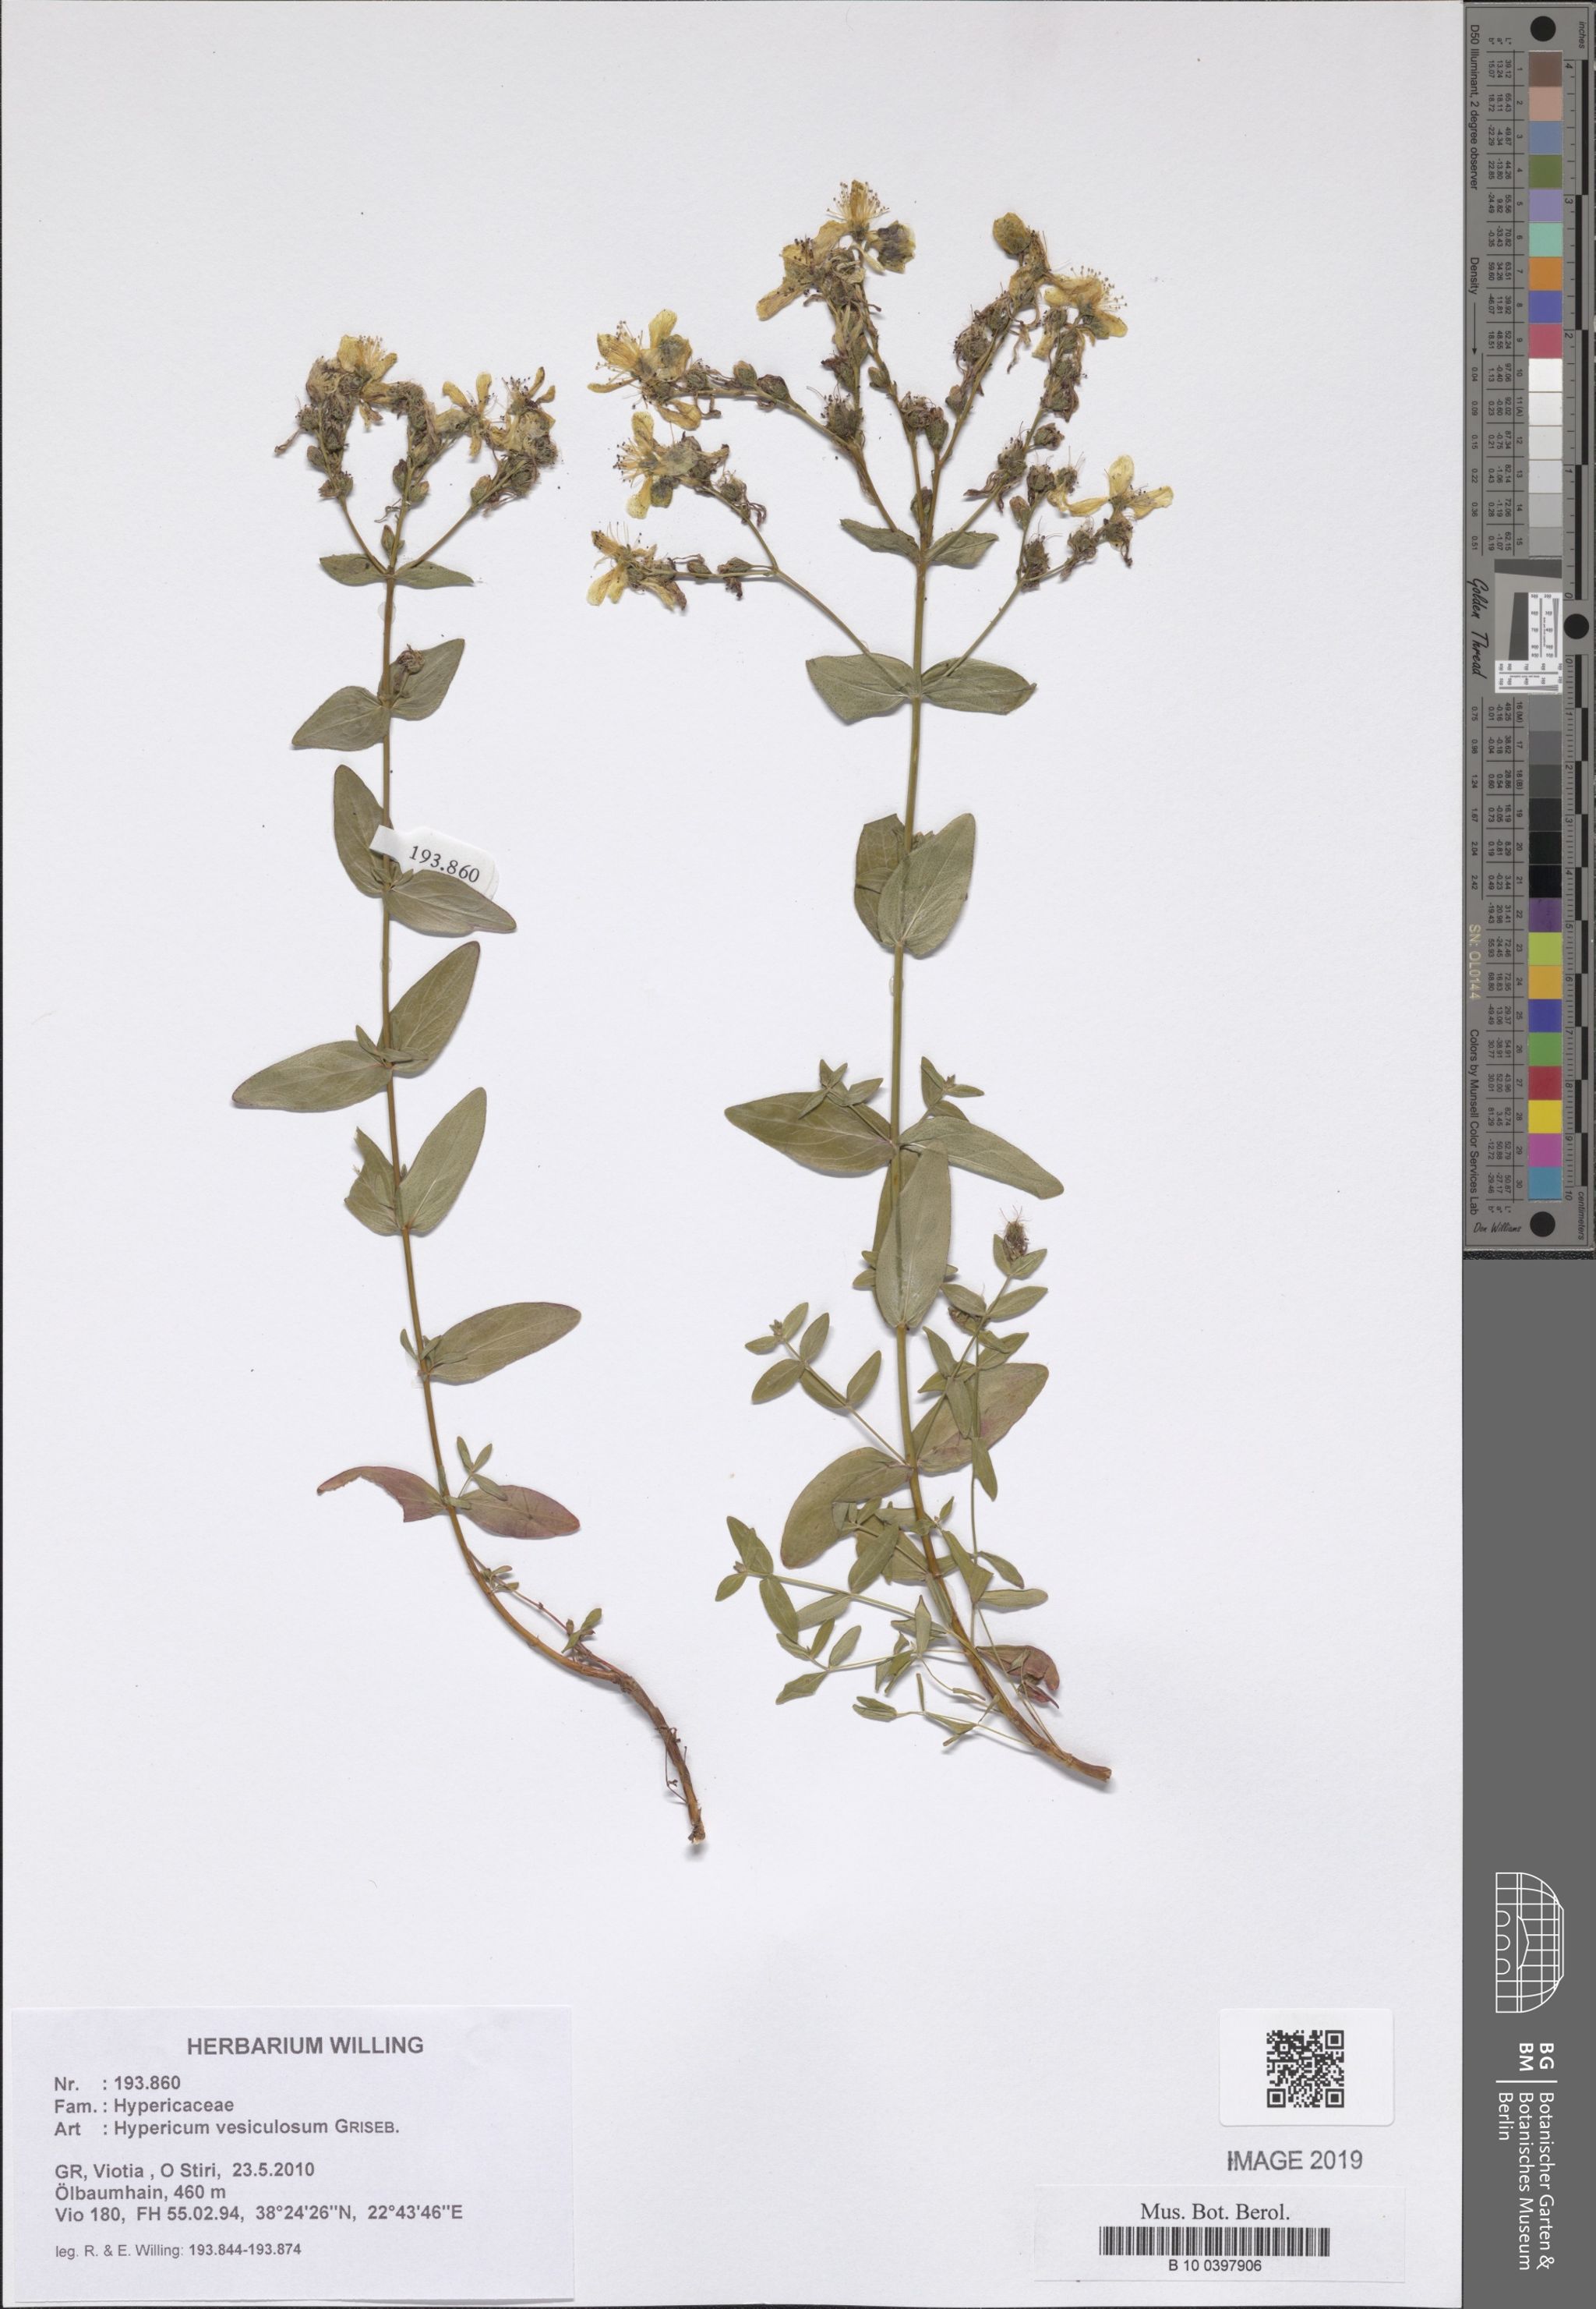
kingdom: Plantae
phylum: Tracheophyta
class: Magnoliopsida
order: Malpighiales
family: Hypericaceae
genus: Hypericum
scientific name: Hypericum vesiculosum
